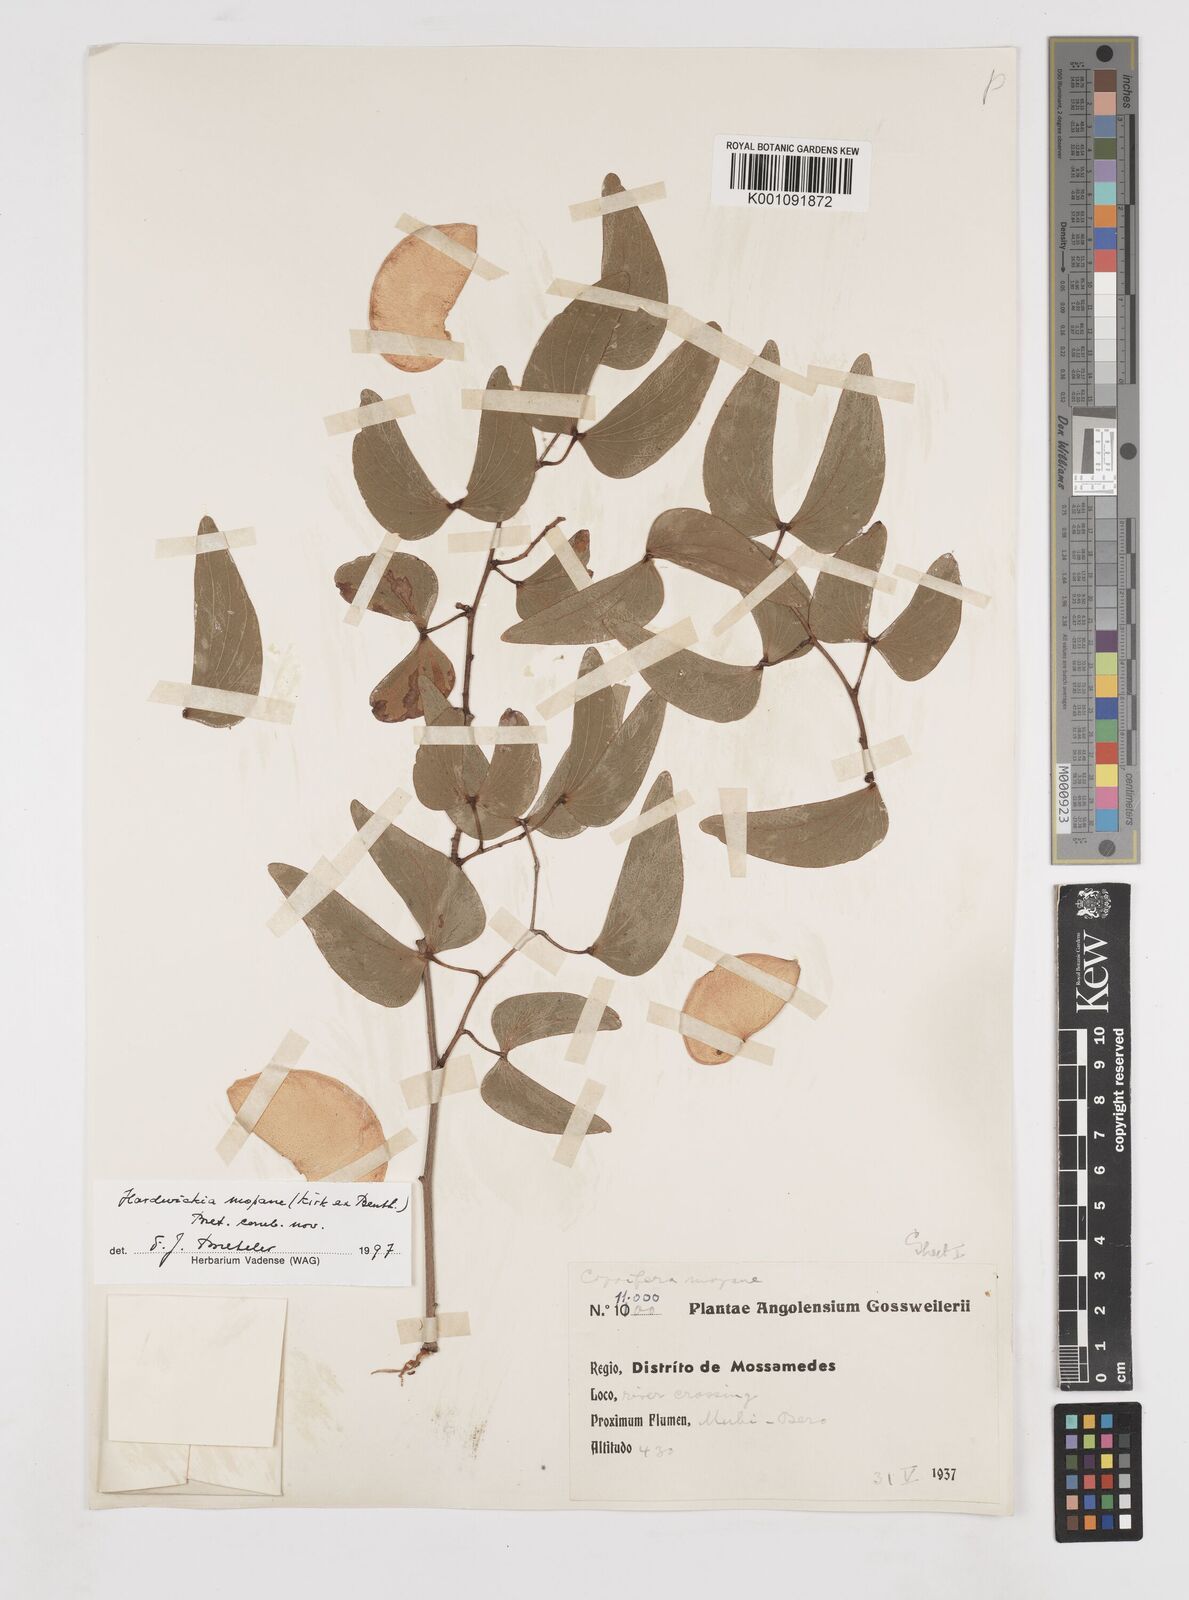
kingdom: Plantae
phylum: Tracheophyta
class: Magnoliopsida
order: Fabales
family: Fabaceae
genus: Colophospermum
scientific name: Colophospermum
